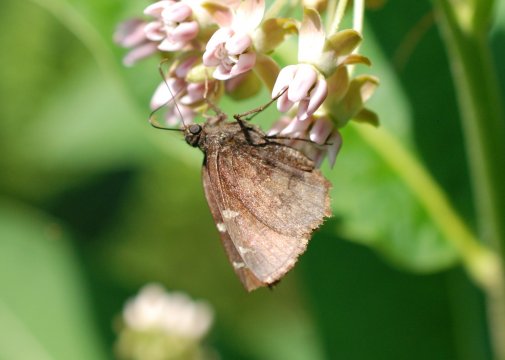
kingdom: Animalia
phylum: Arthropoda
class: Insecta
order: Lepidoptera
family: Hesperiidae
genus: Autochton
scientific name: Autochton
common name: Northern Cloudywing
